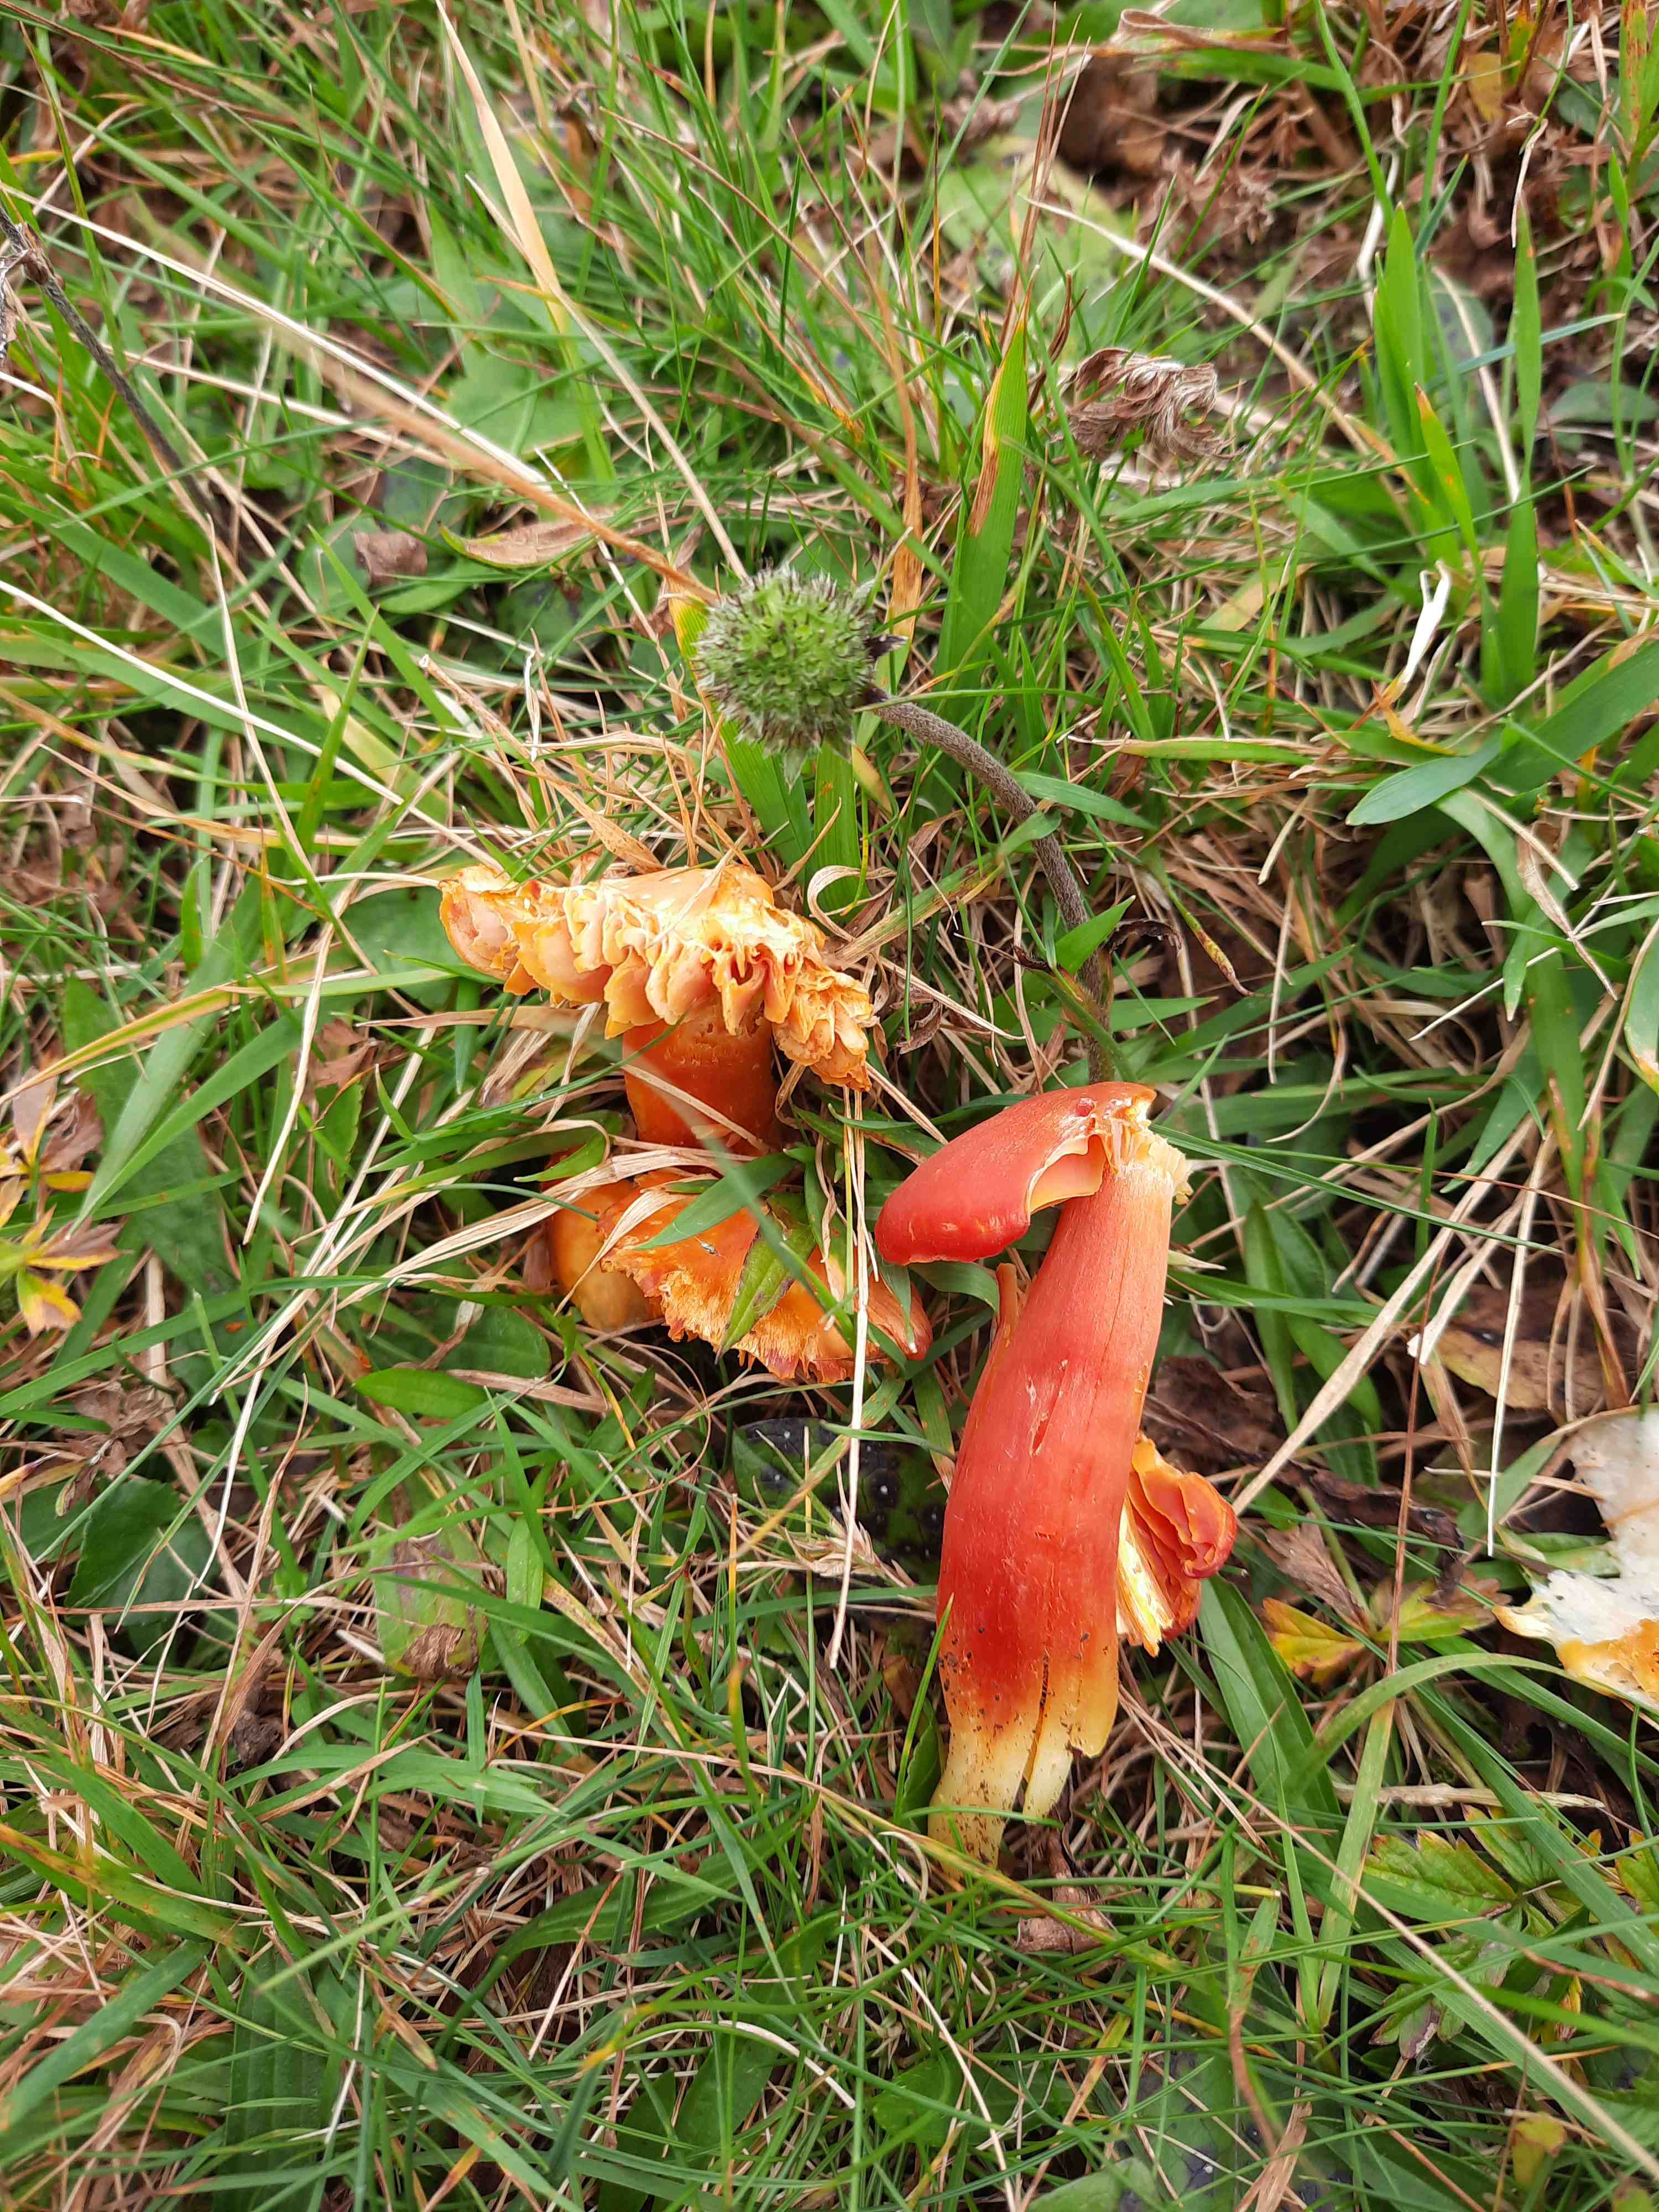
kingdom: Fungi
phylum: Basidiomycota
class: Agaricomycetes
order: Agaricales
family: Hygrophoraceae
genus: Hygrocybe
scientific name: Hygrocybe punicea
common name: skarlagen-vokshat
